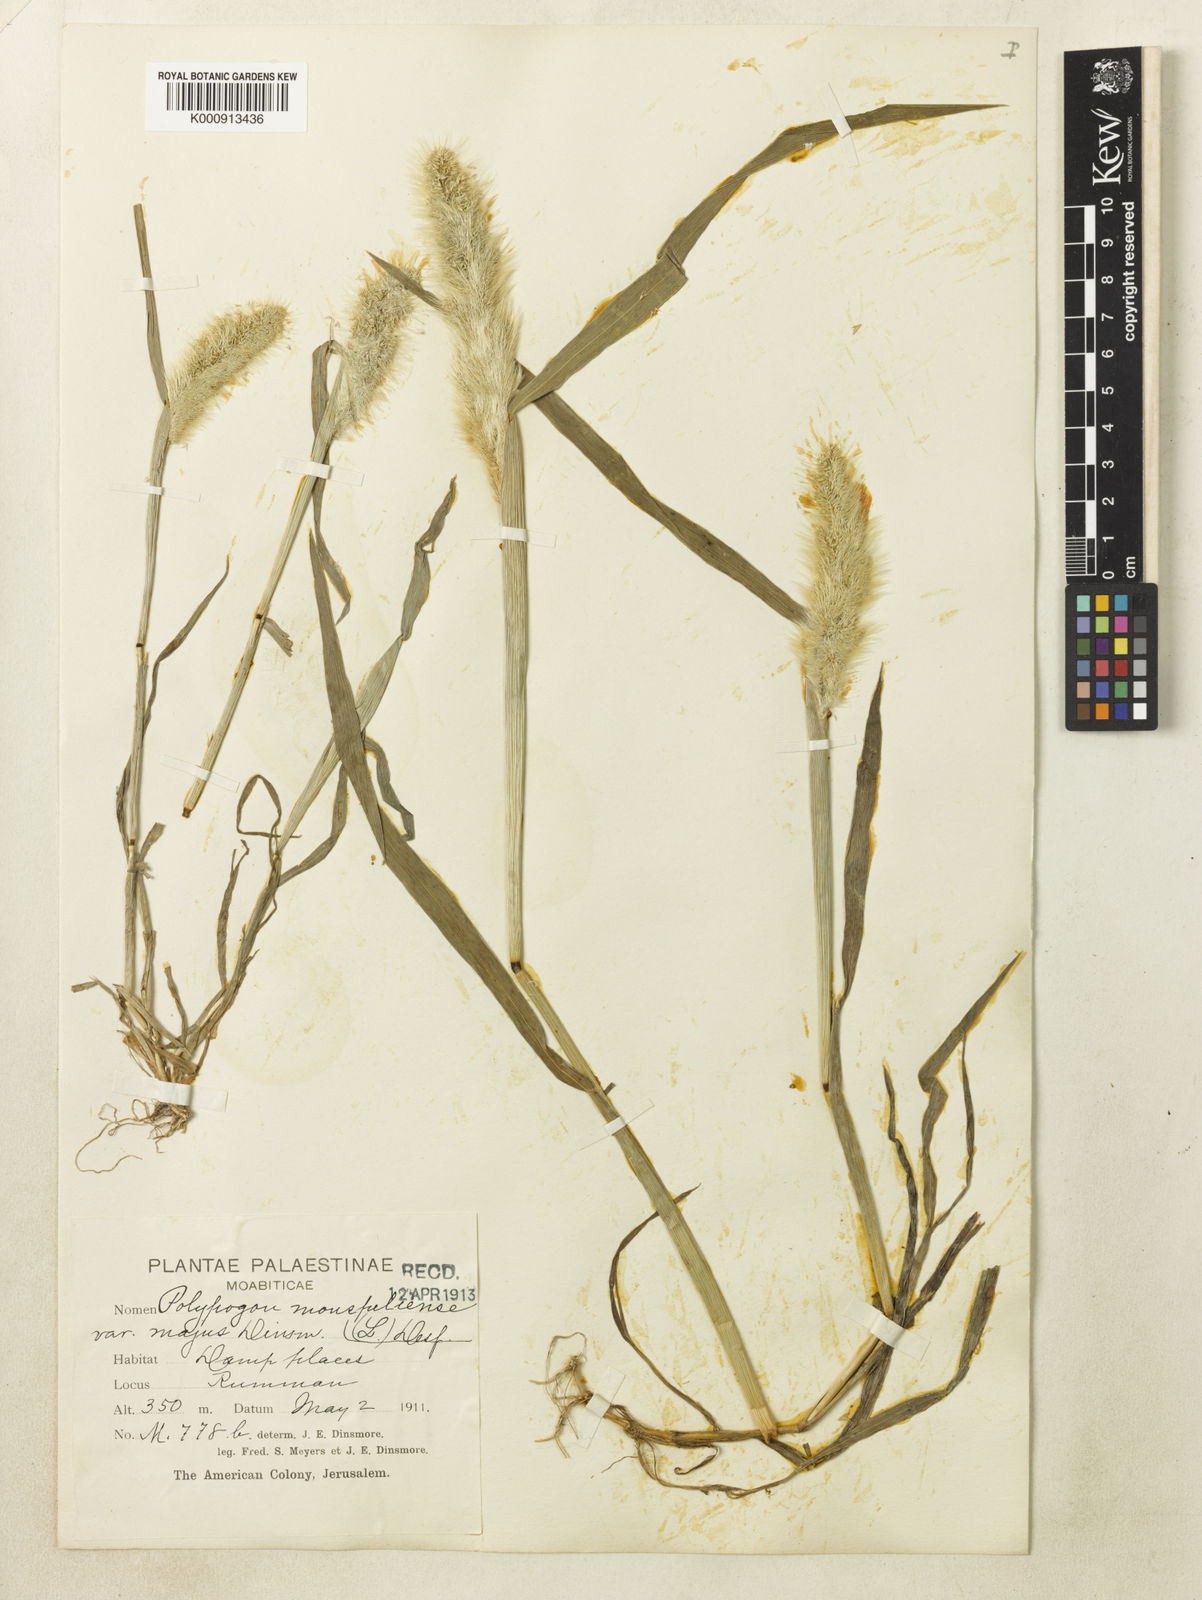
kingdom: Plantae
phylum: Tracheophyta
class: Liliopsida
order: Poales
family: Poaceae
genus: Polypogon
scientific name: Polypogon monspeliensis
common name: Annual rabbitsfoot grass
